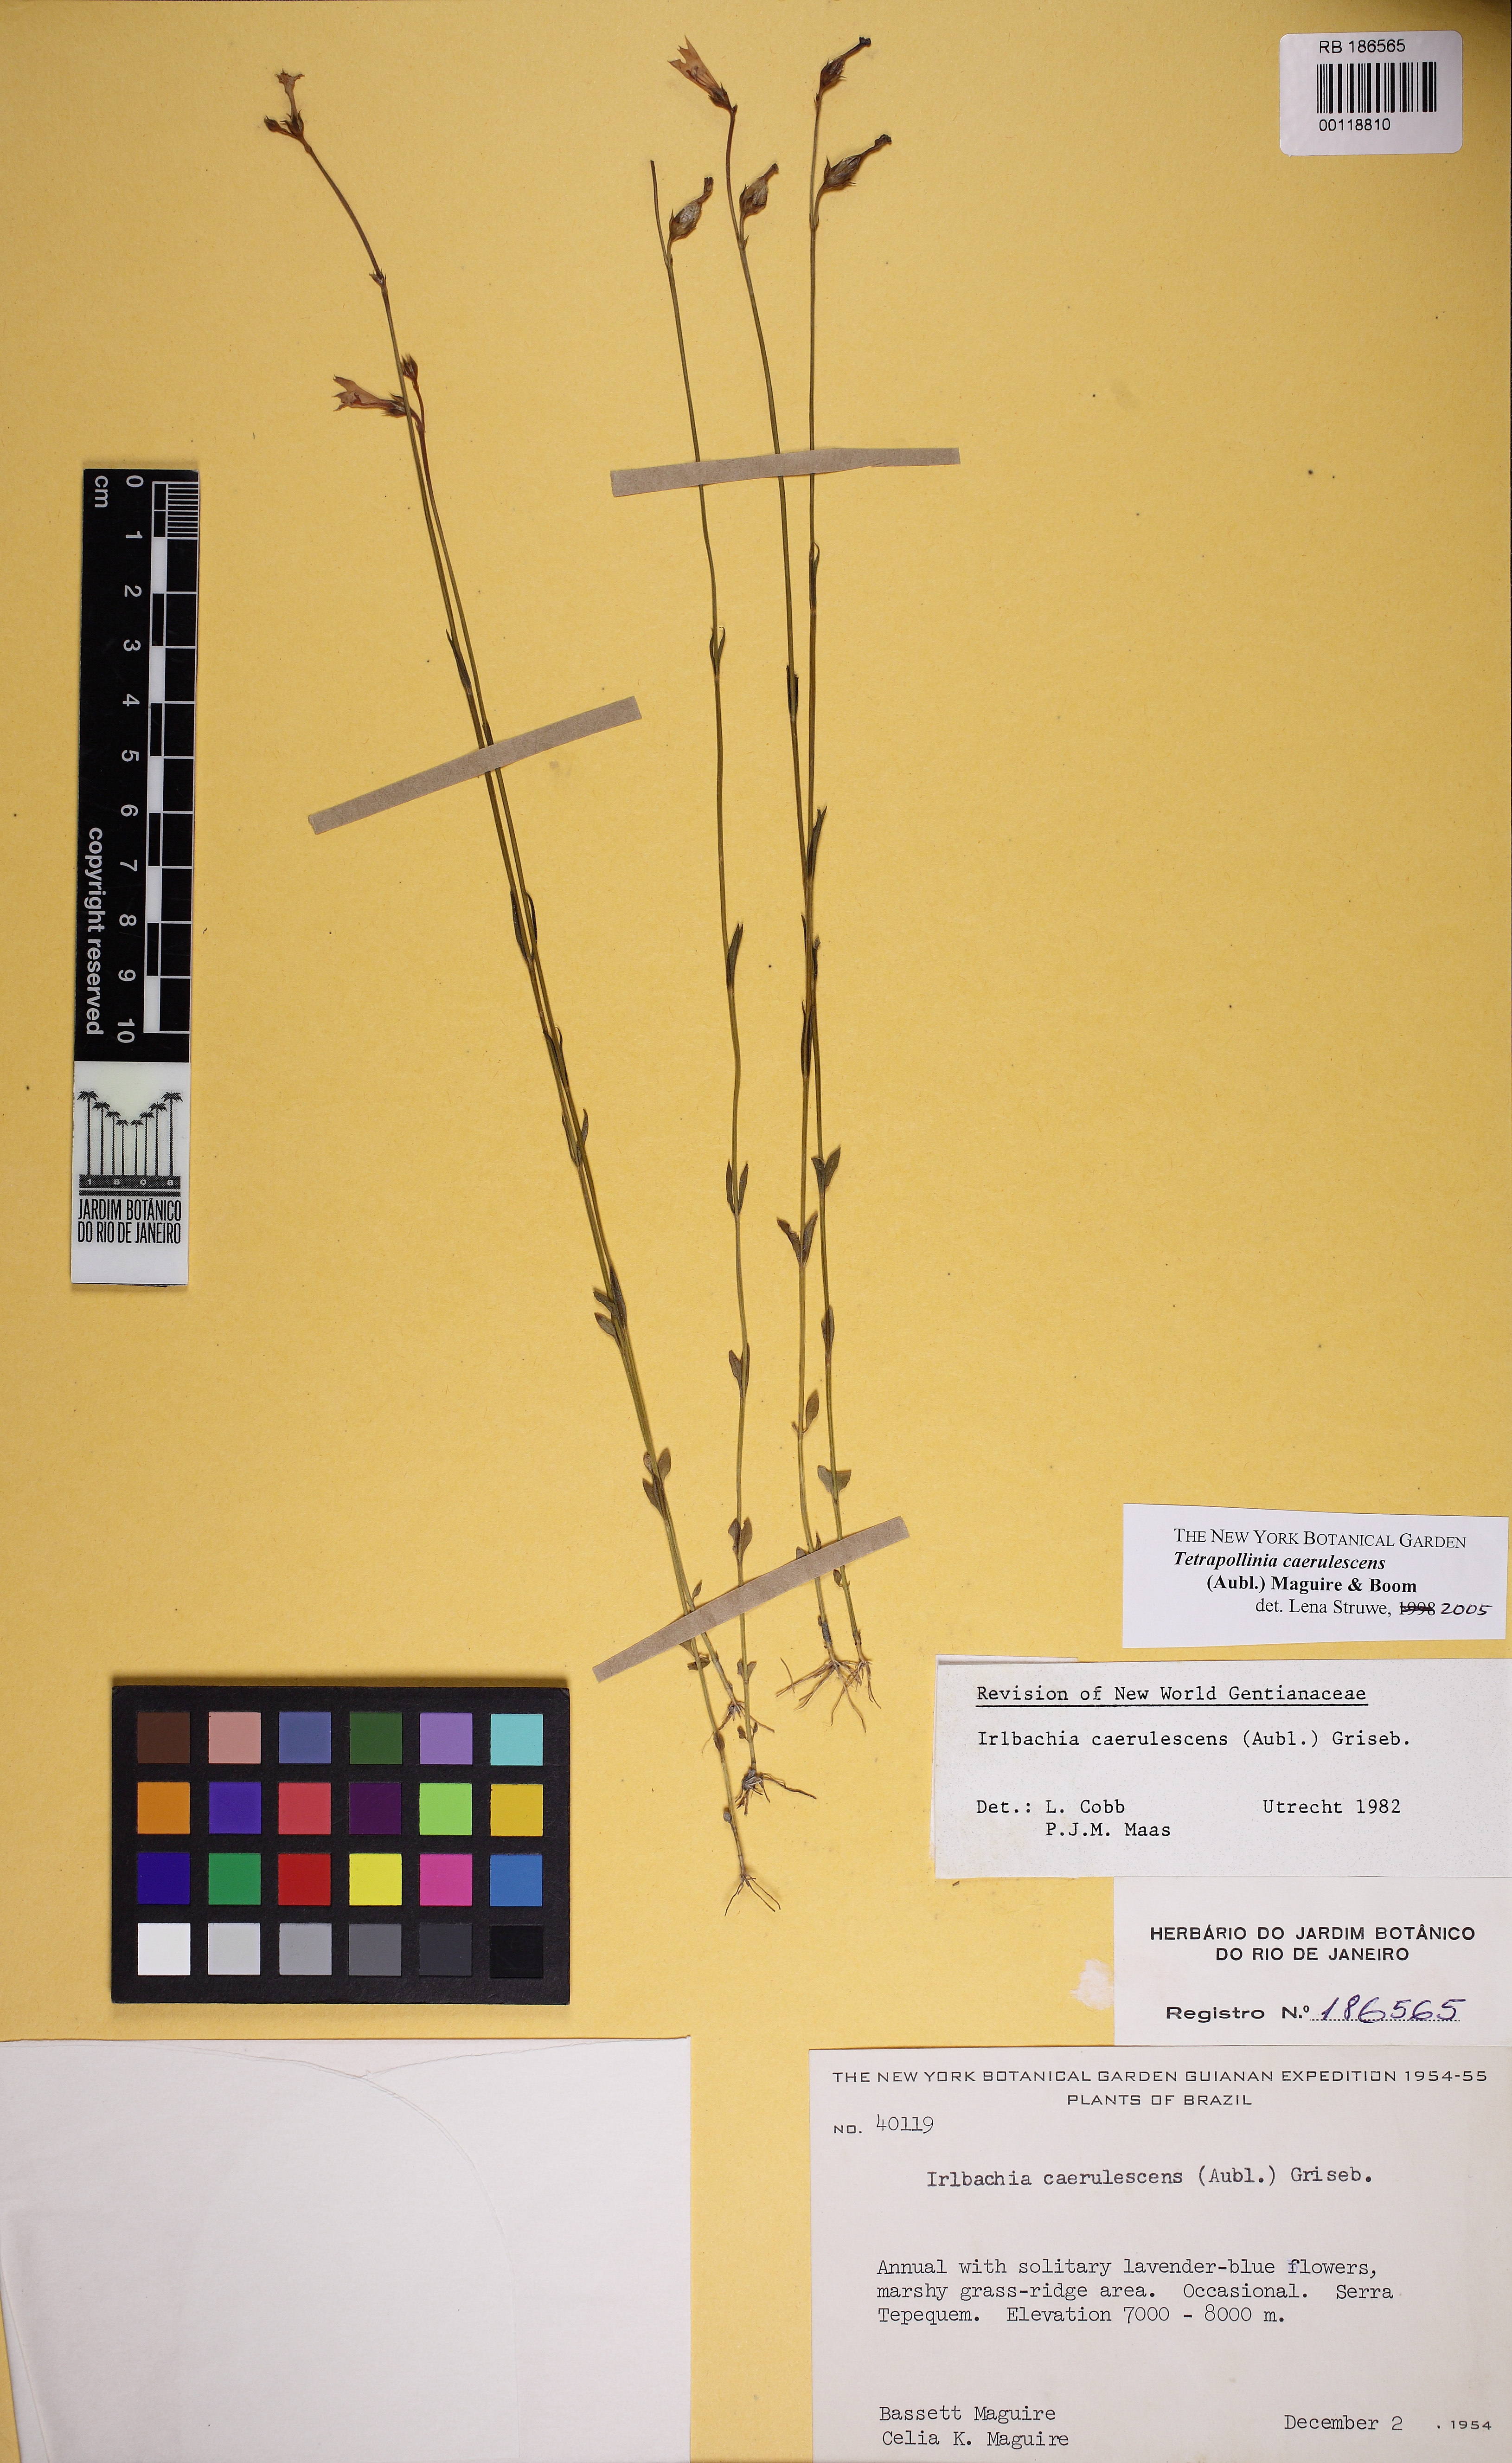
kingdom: Plantae
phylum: Tracheophyta
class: Magnoliopsida
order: Gentianales
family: Gentianaceae
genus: Tetrapollinia
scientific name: Tetrapollinia caerulescens
